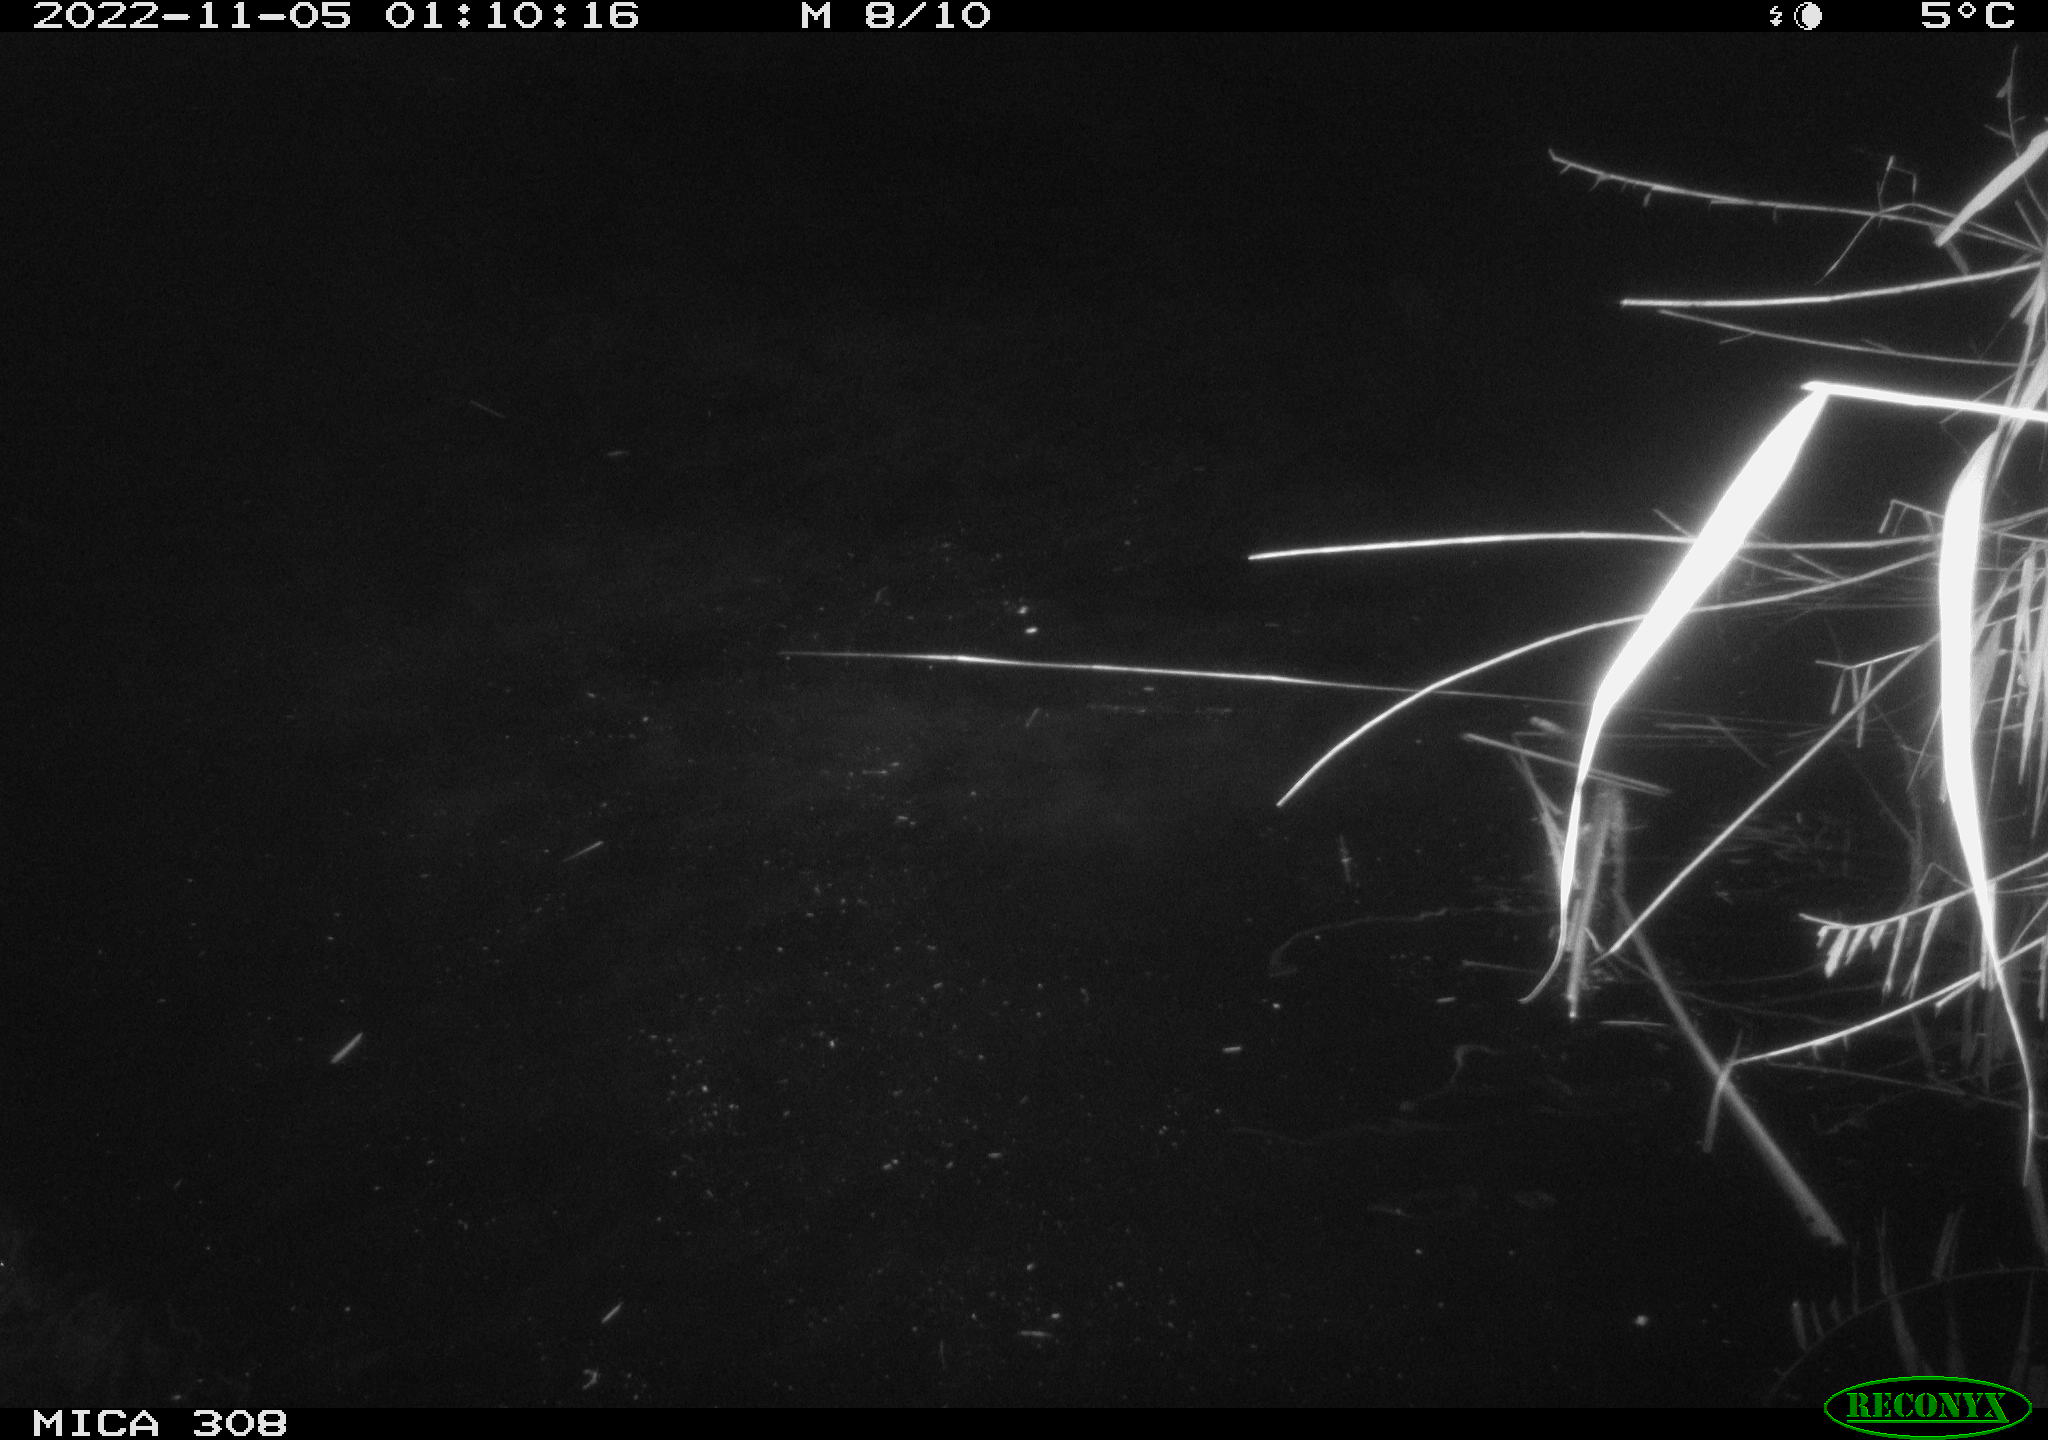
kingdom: Animalia
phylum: Chordata
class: Mammalia
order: Rodentia
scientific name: Rodentia
